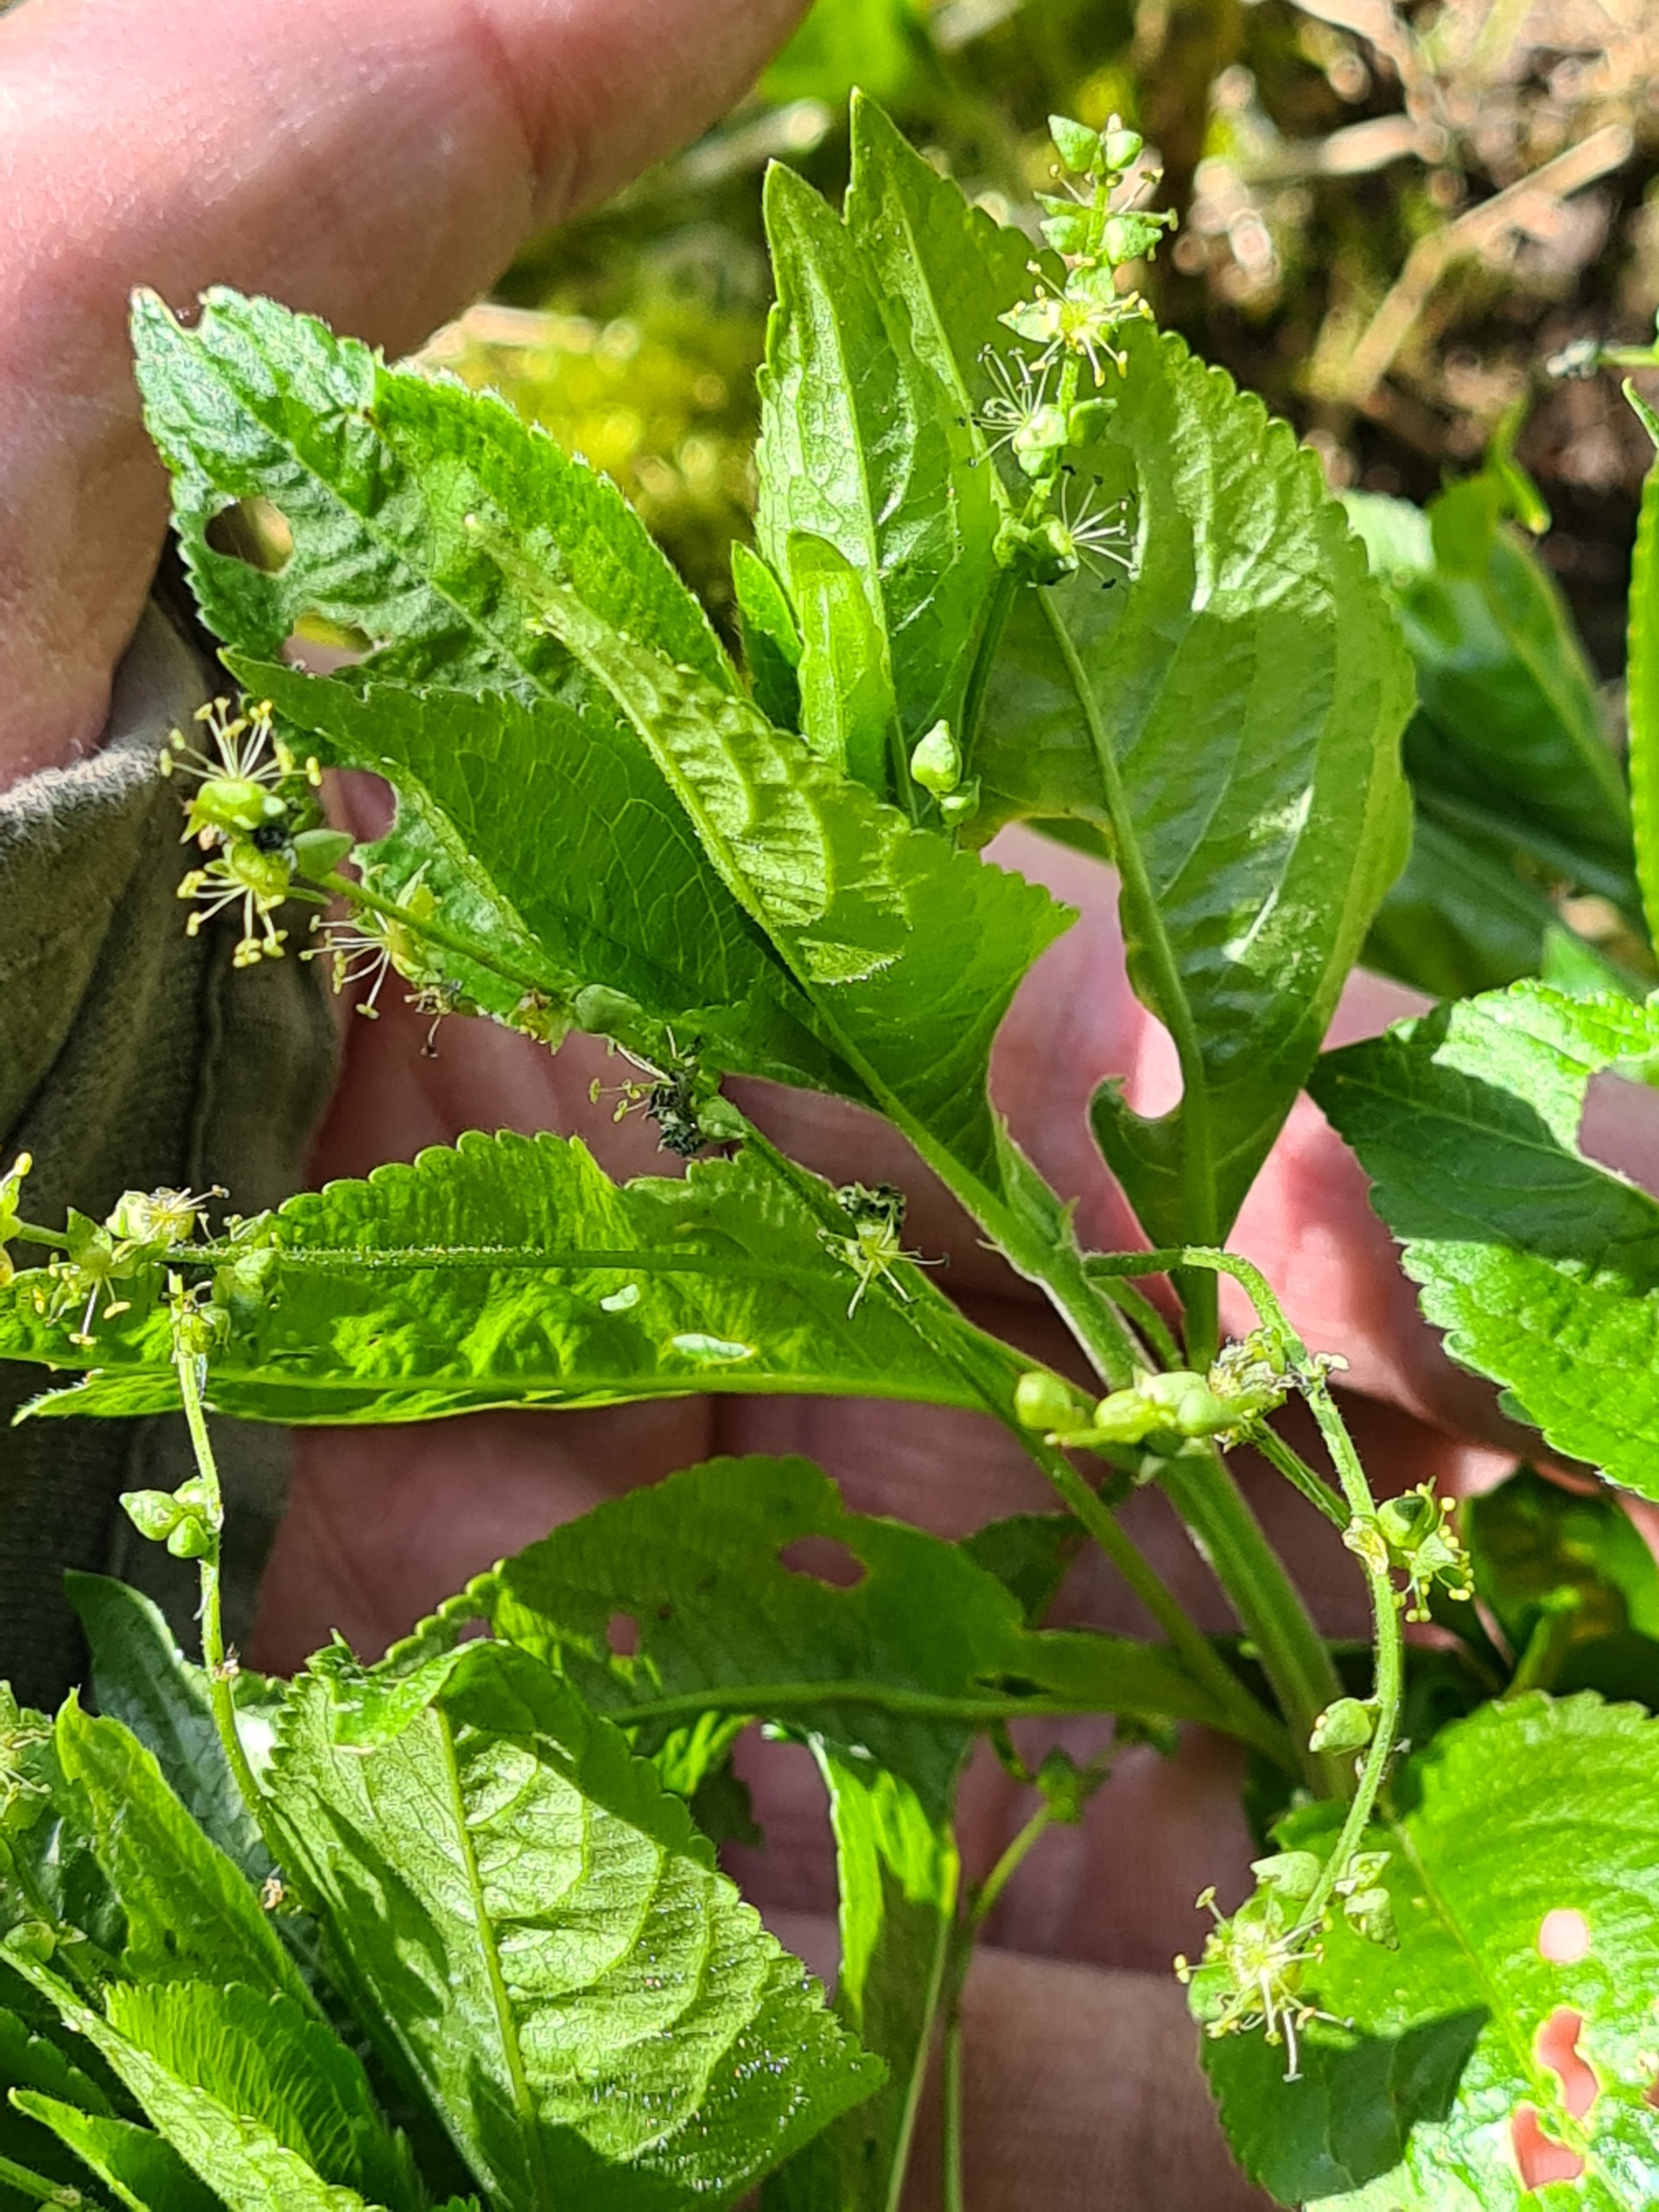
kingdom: Plantae
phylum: Tracheophyta
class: Magnoliopsida
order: Malpighiales
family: Euphorbiaceae
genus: Mercurialis
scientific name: Mercurialis perennis
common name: Almindelig bingelurt
